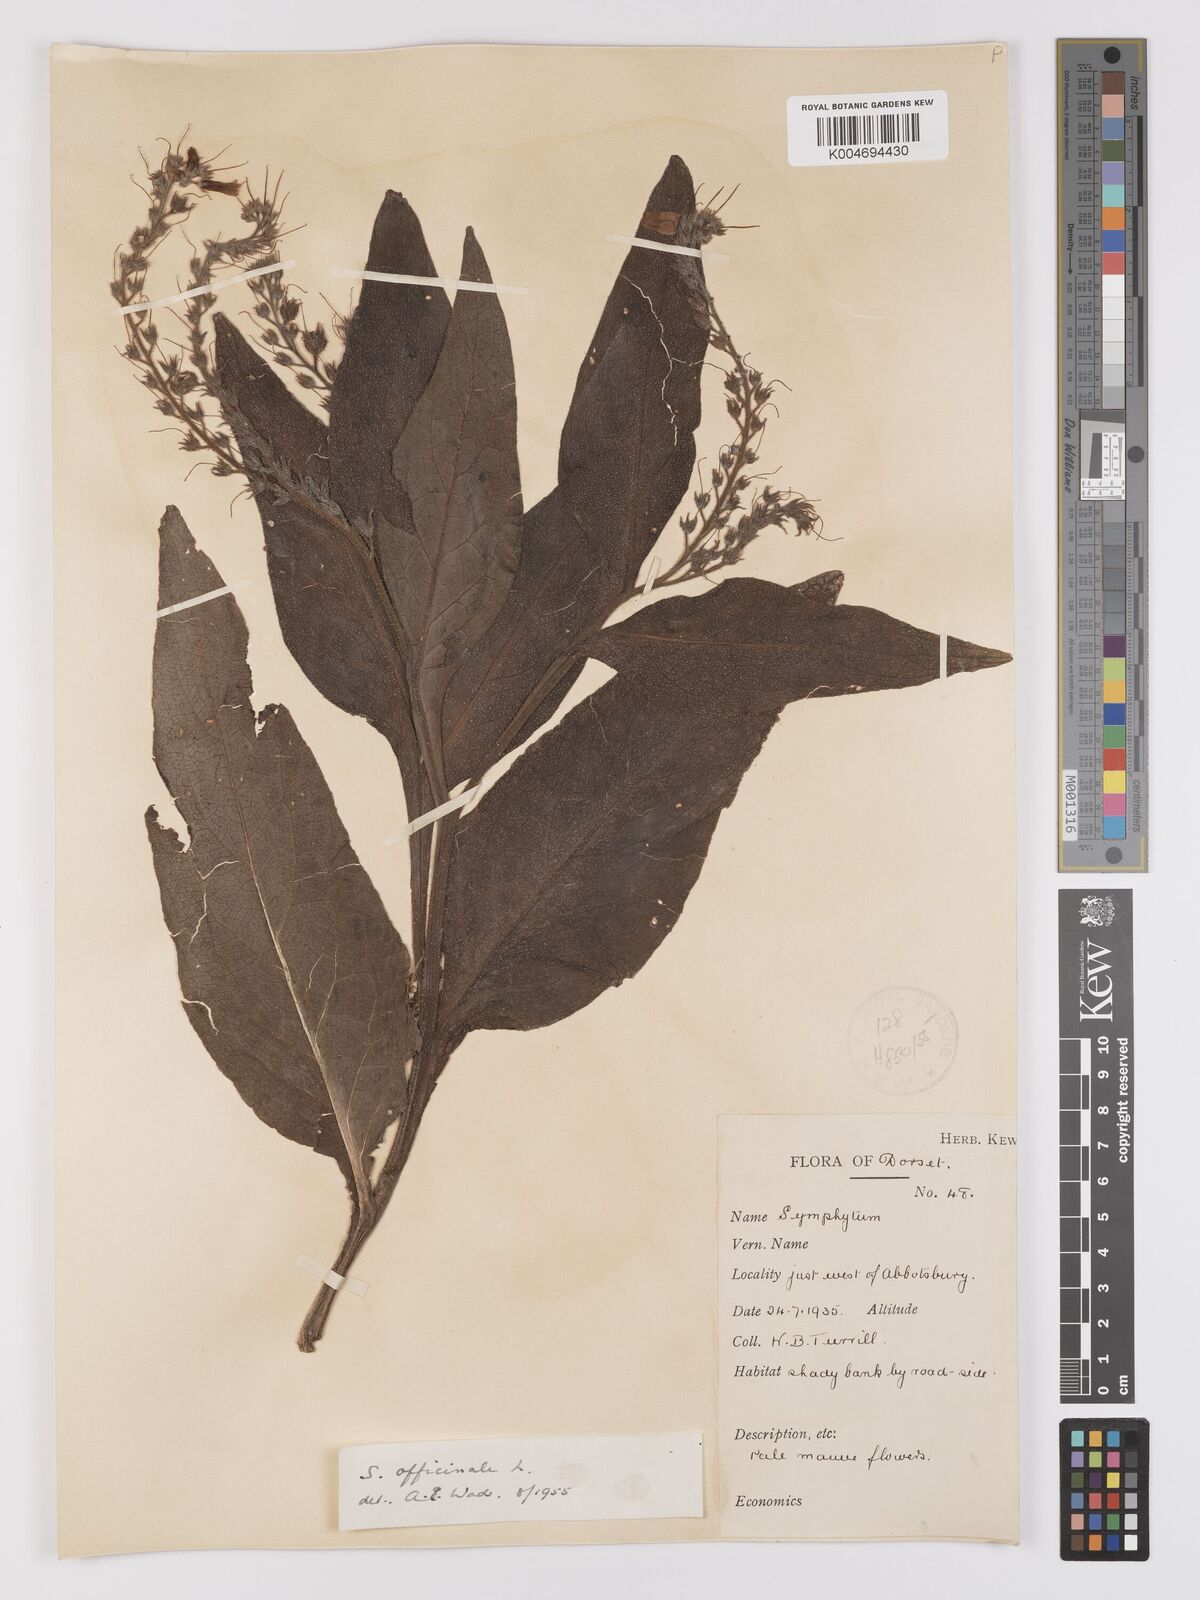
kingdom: Plantae
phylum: Tracheophyta
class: Magnoliopsida
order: Boraginales
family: Boraginaceae
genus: Symphytum
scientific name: Symphytum officinale
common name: Common comfrey
